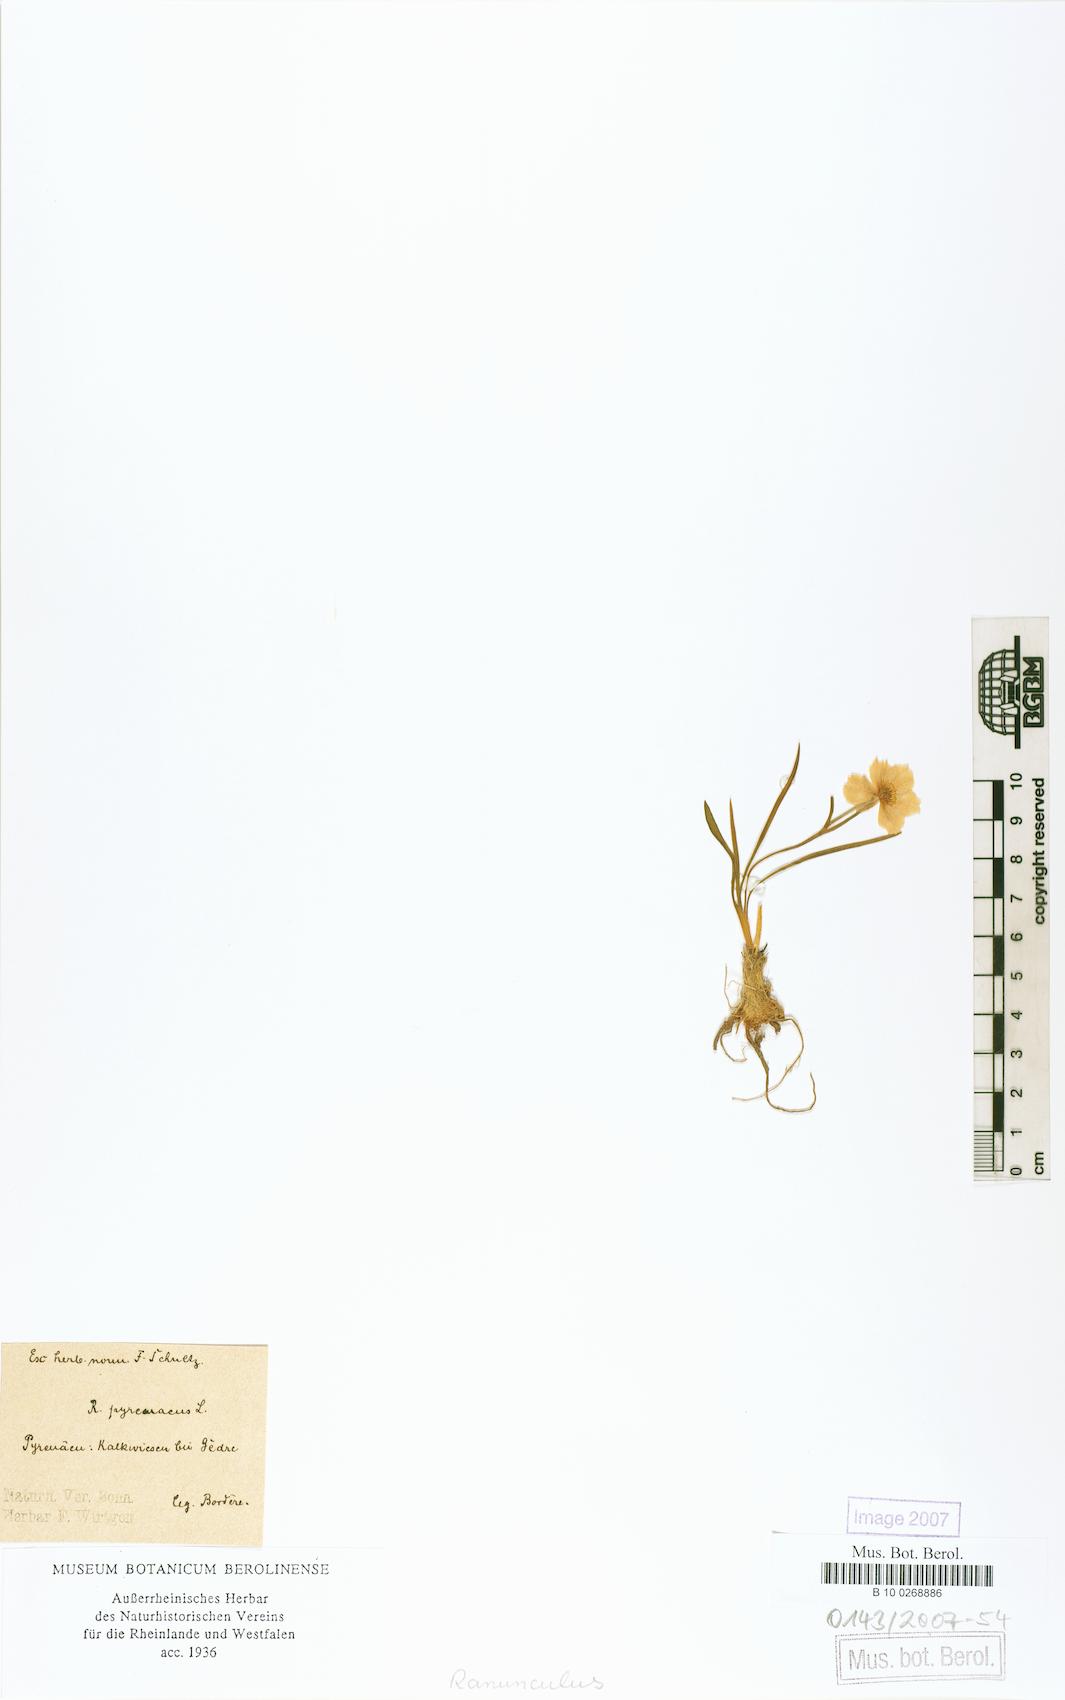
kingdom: Plantae
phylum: Tracheophyta
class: Magnoliopsida
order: Ranunculales
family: Ranunculaceae
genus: Ranunculus
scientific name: Ranunculus pyrenaeus
